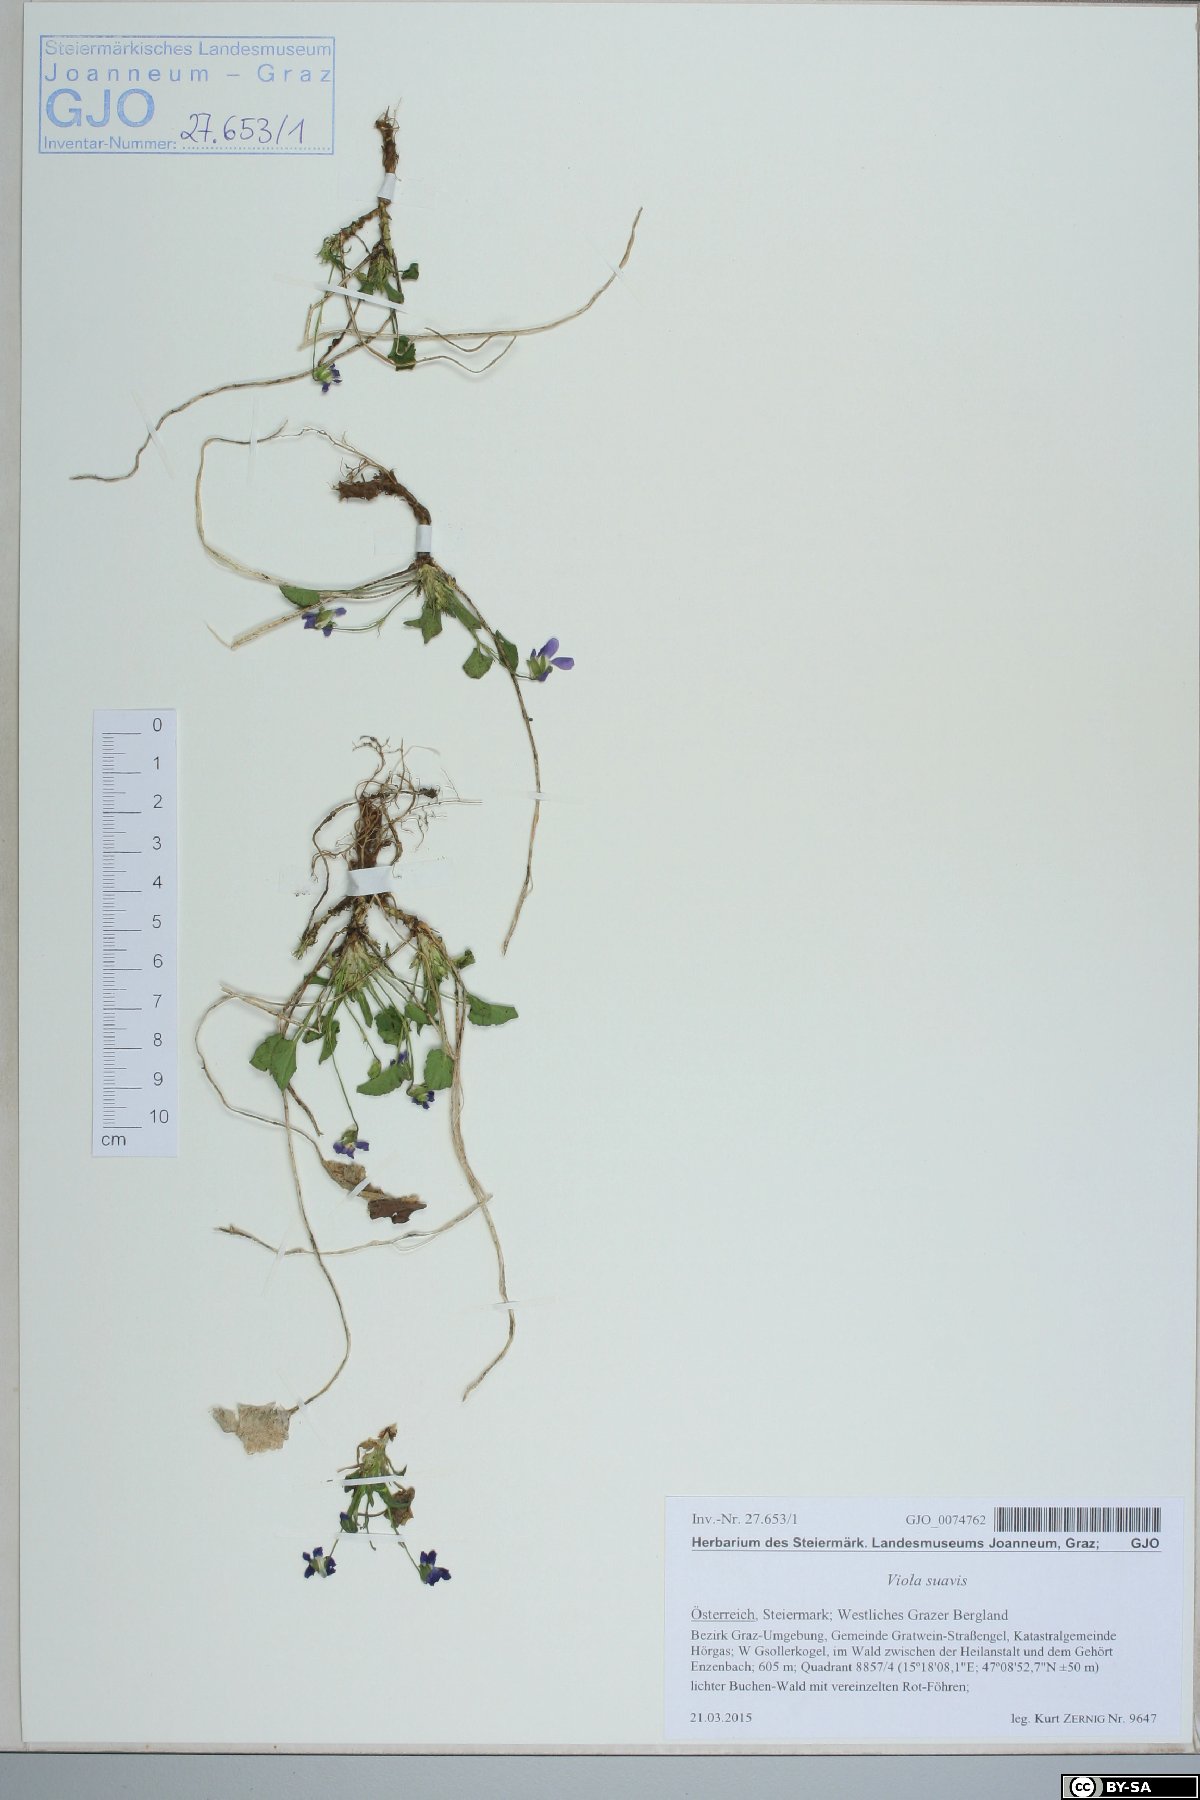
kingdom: Plantae
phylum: Tracheophyta
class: Magnoliopsida
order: Malpighiales
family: Violaceae
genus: Viola
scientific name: Viola suavis
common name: Russian violet
